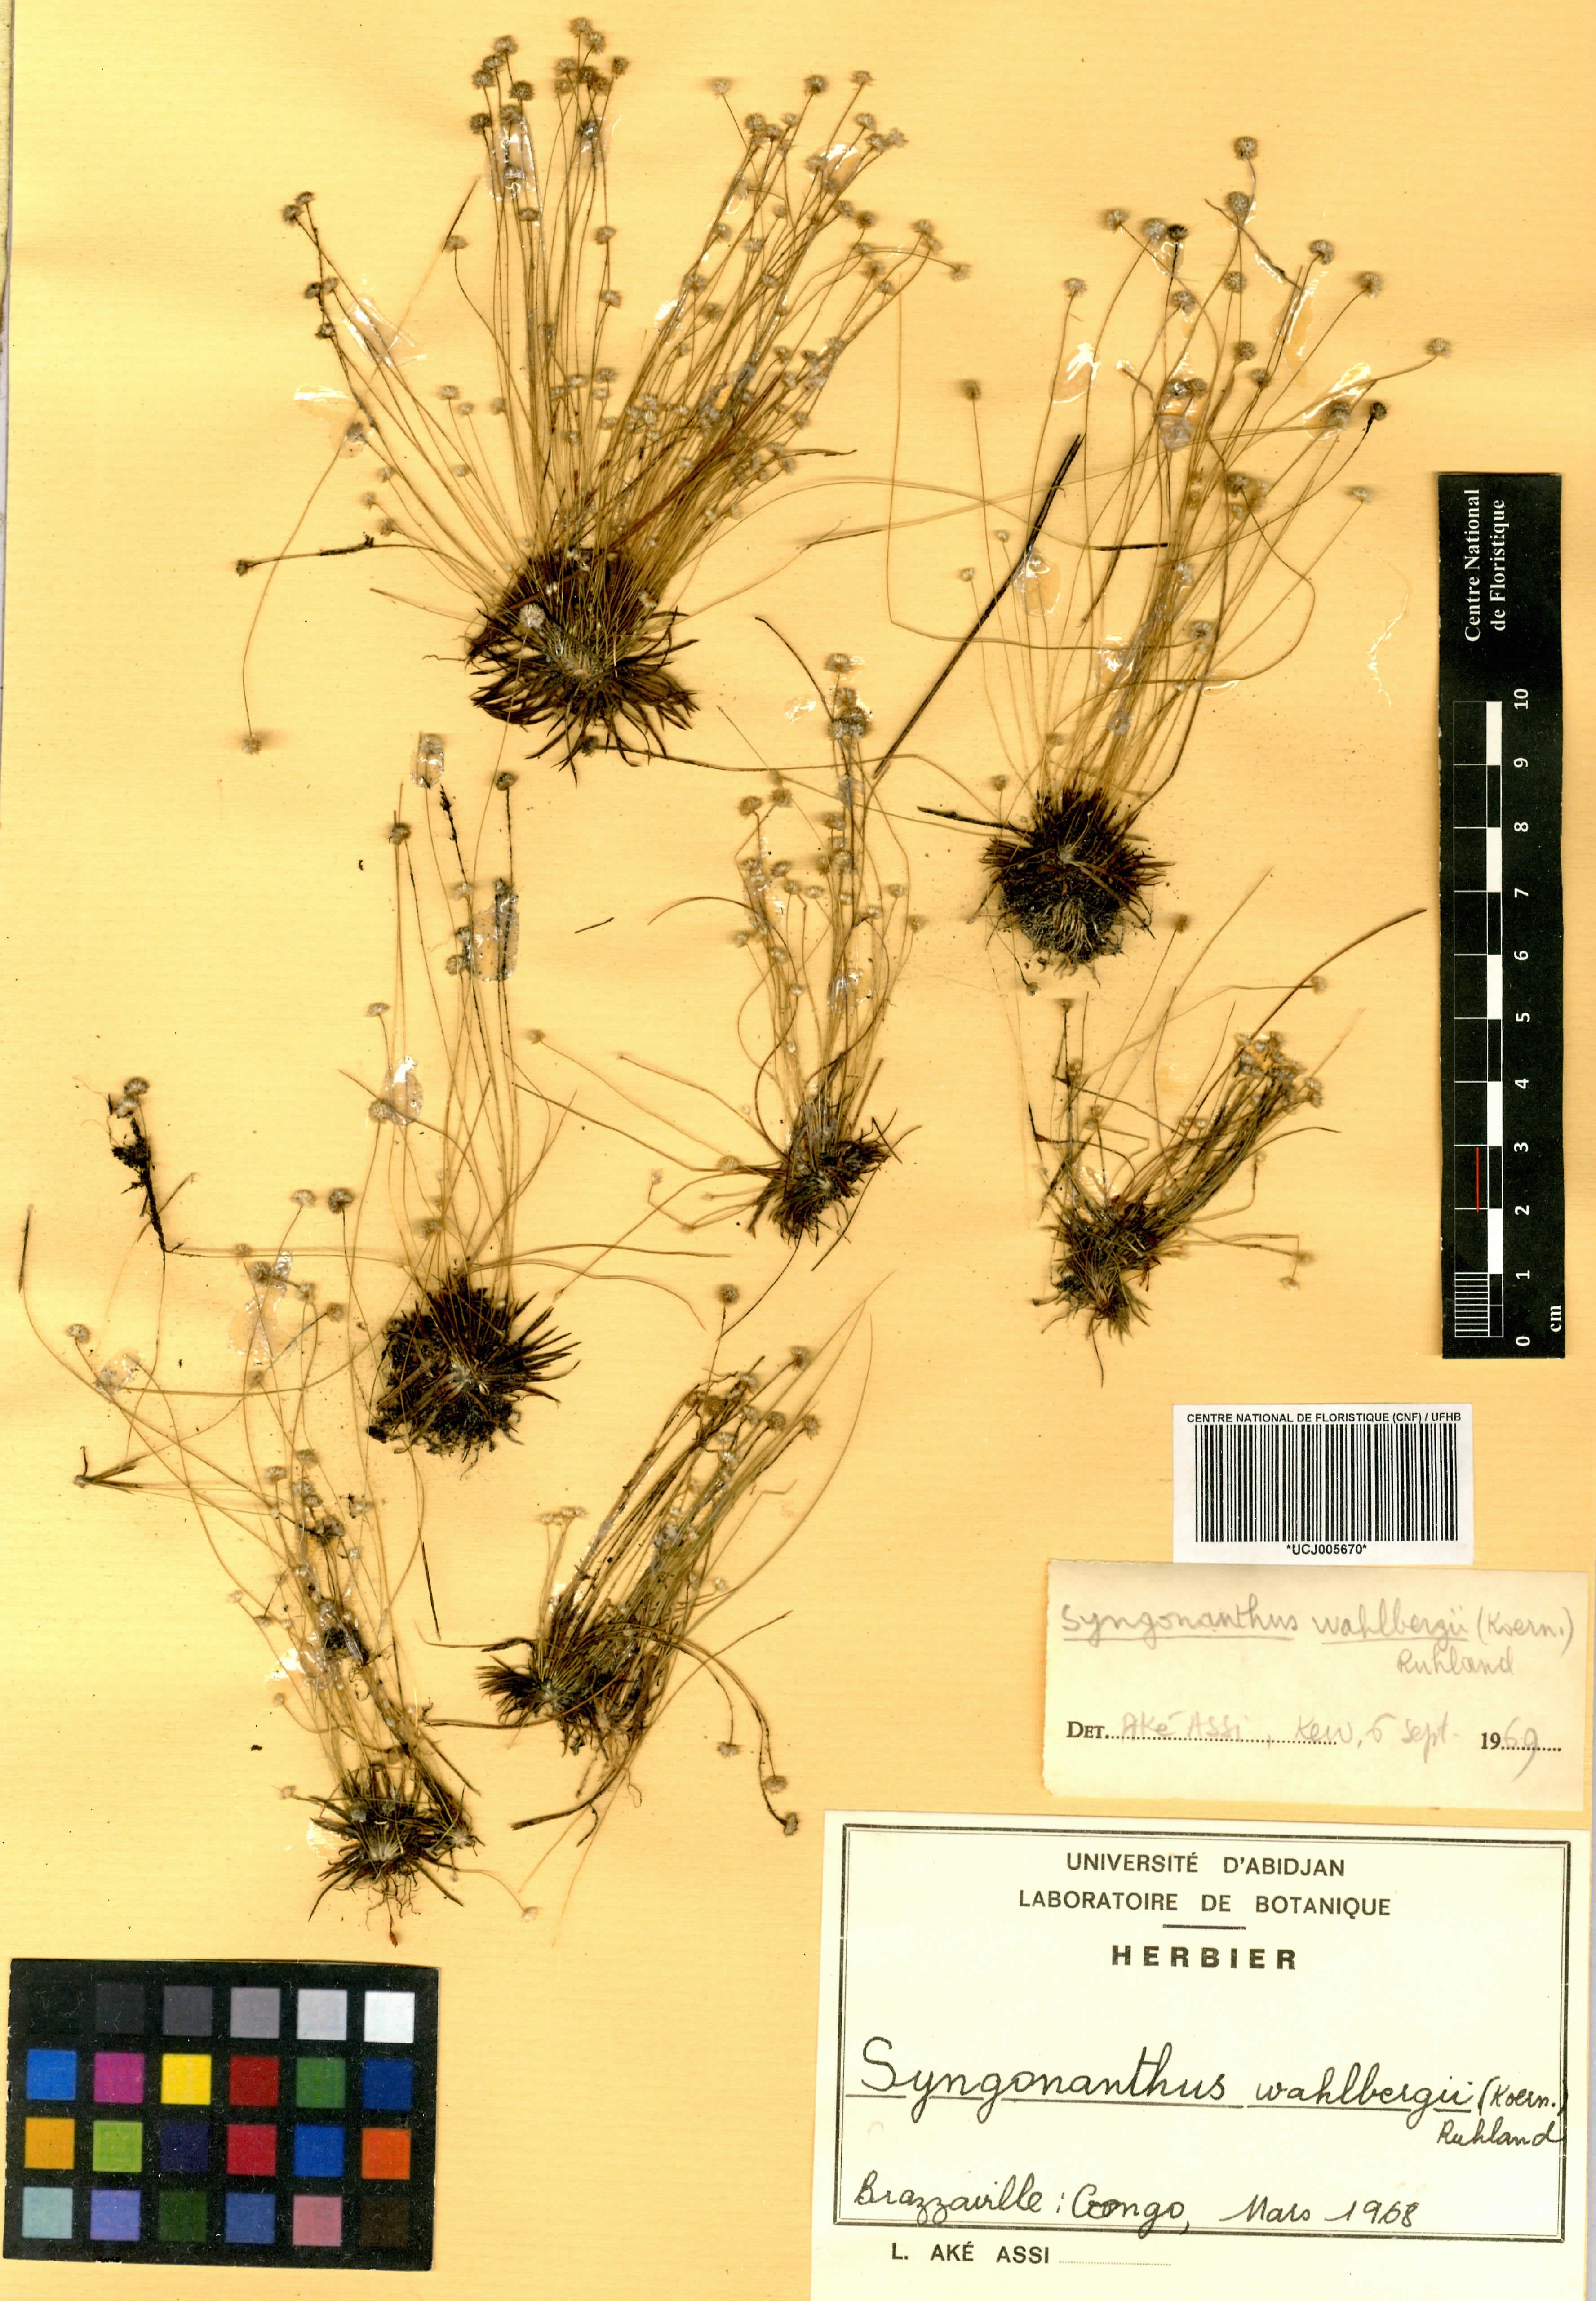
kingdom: Plantae
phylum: Tracheophyta
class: Liliopsida
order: Poales
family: Eriocaulaceae
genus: Syngonanthus
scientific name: Syngonanthus wahlbergii
